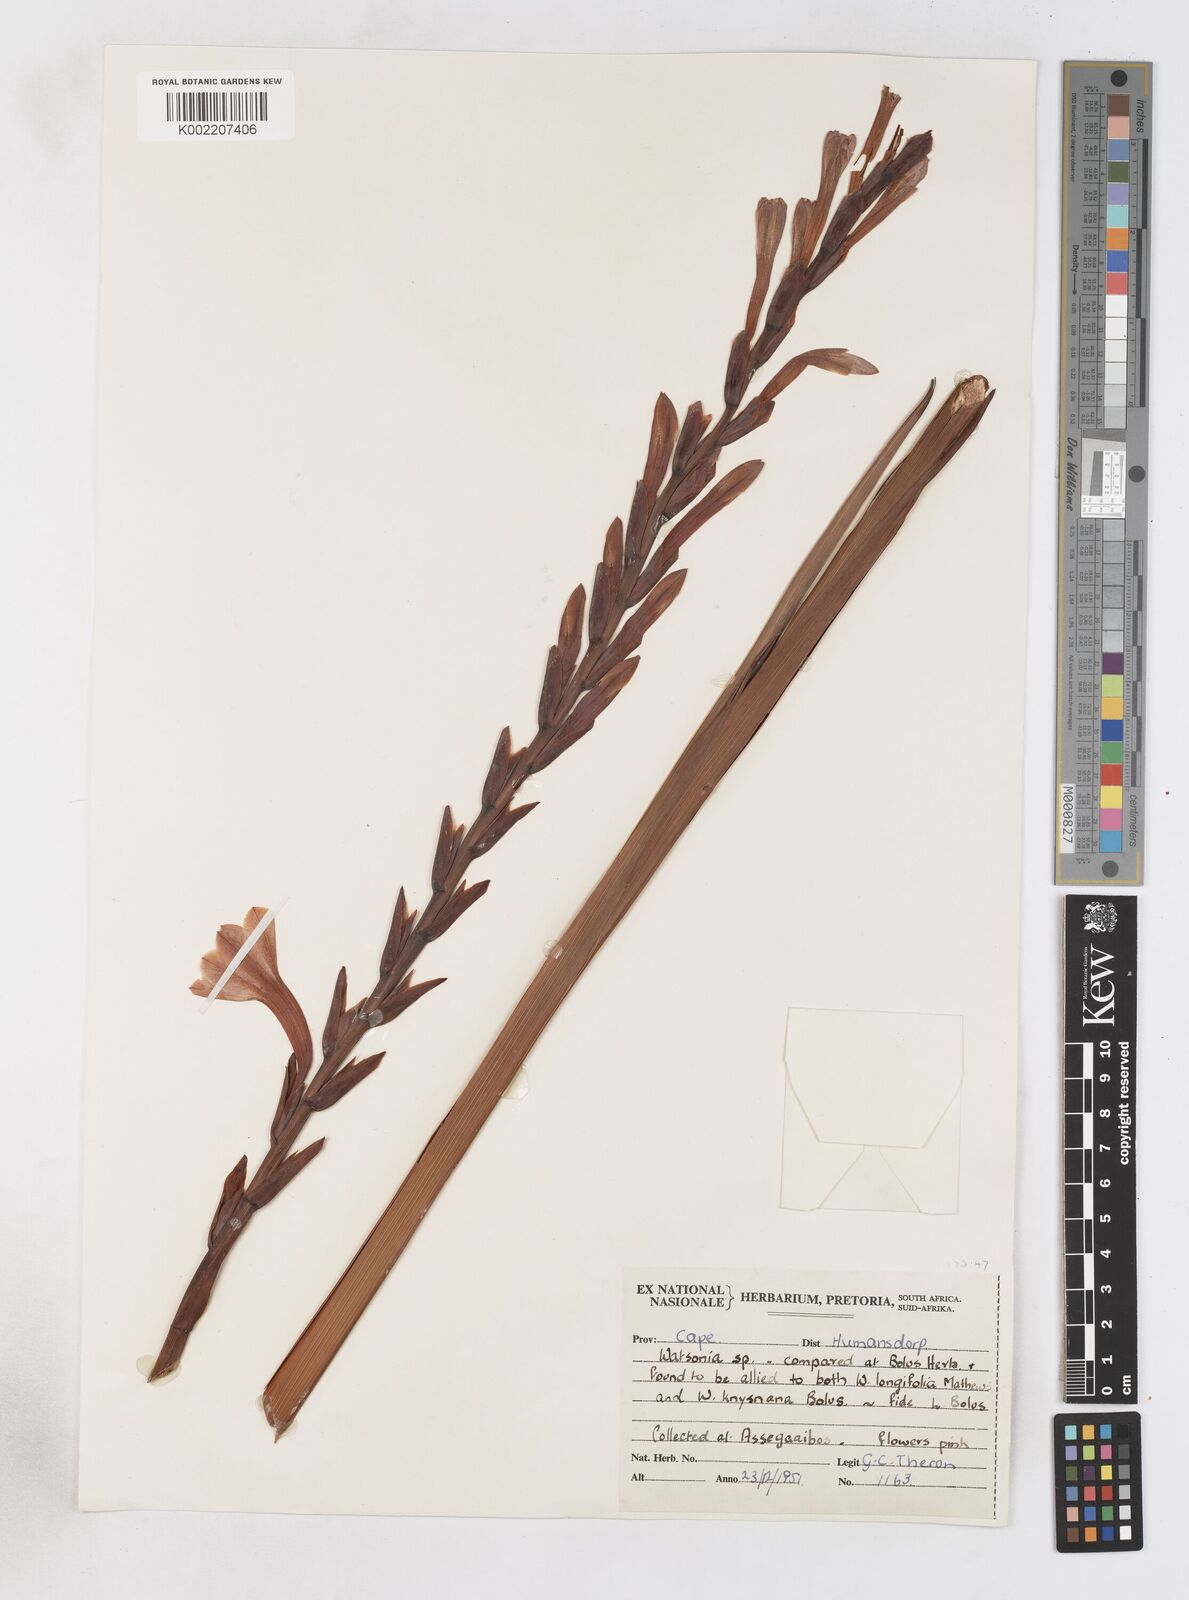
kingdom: Plantae
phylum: Tracheophyta
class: Liliopsida
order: Asparagales
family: Iridaceae
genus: Watsonia
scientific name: Watsonia pillansii
